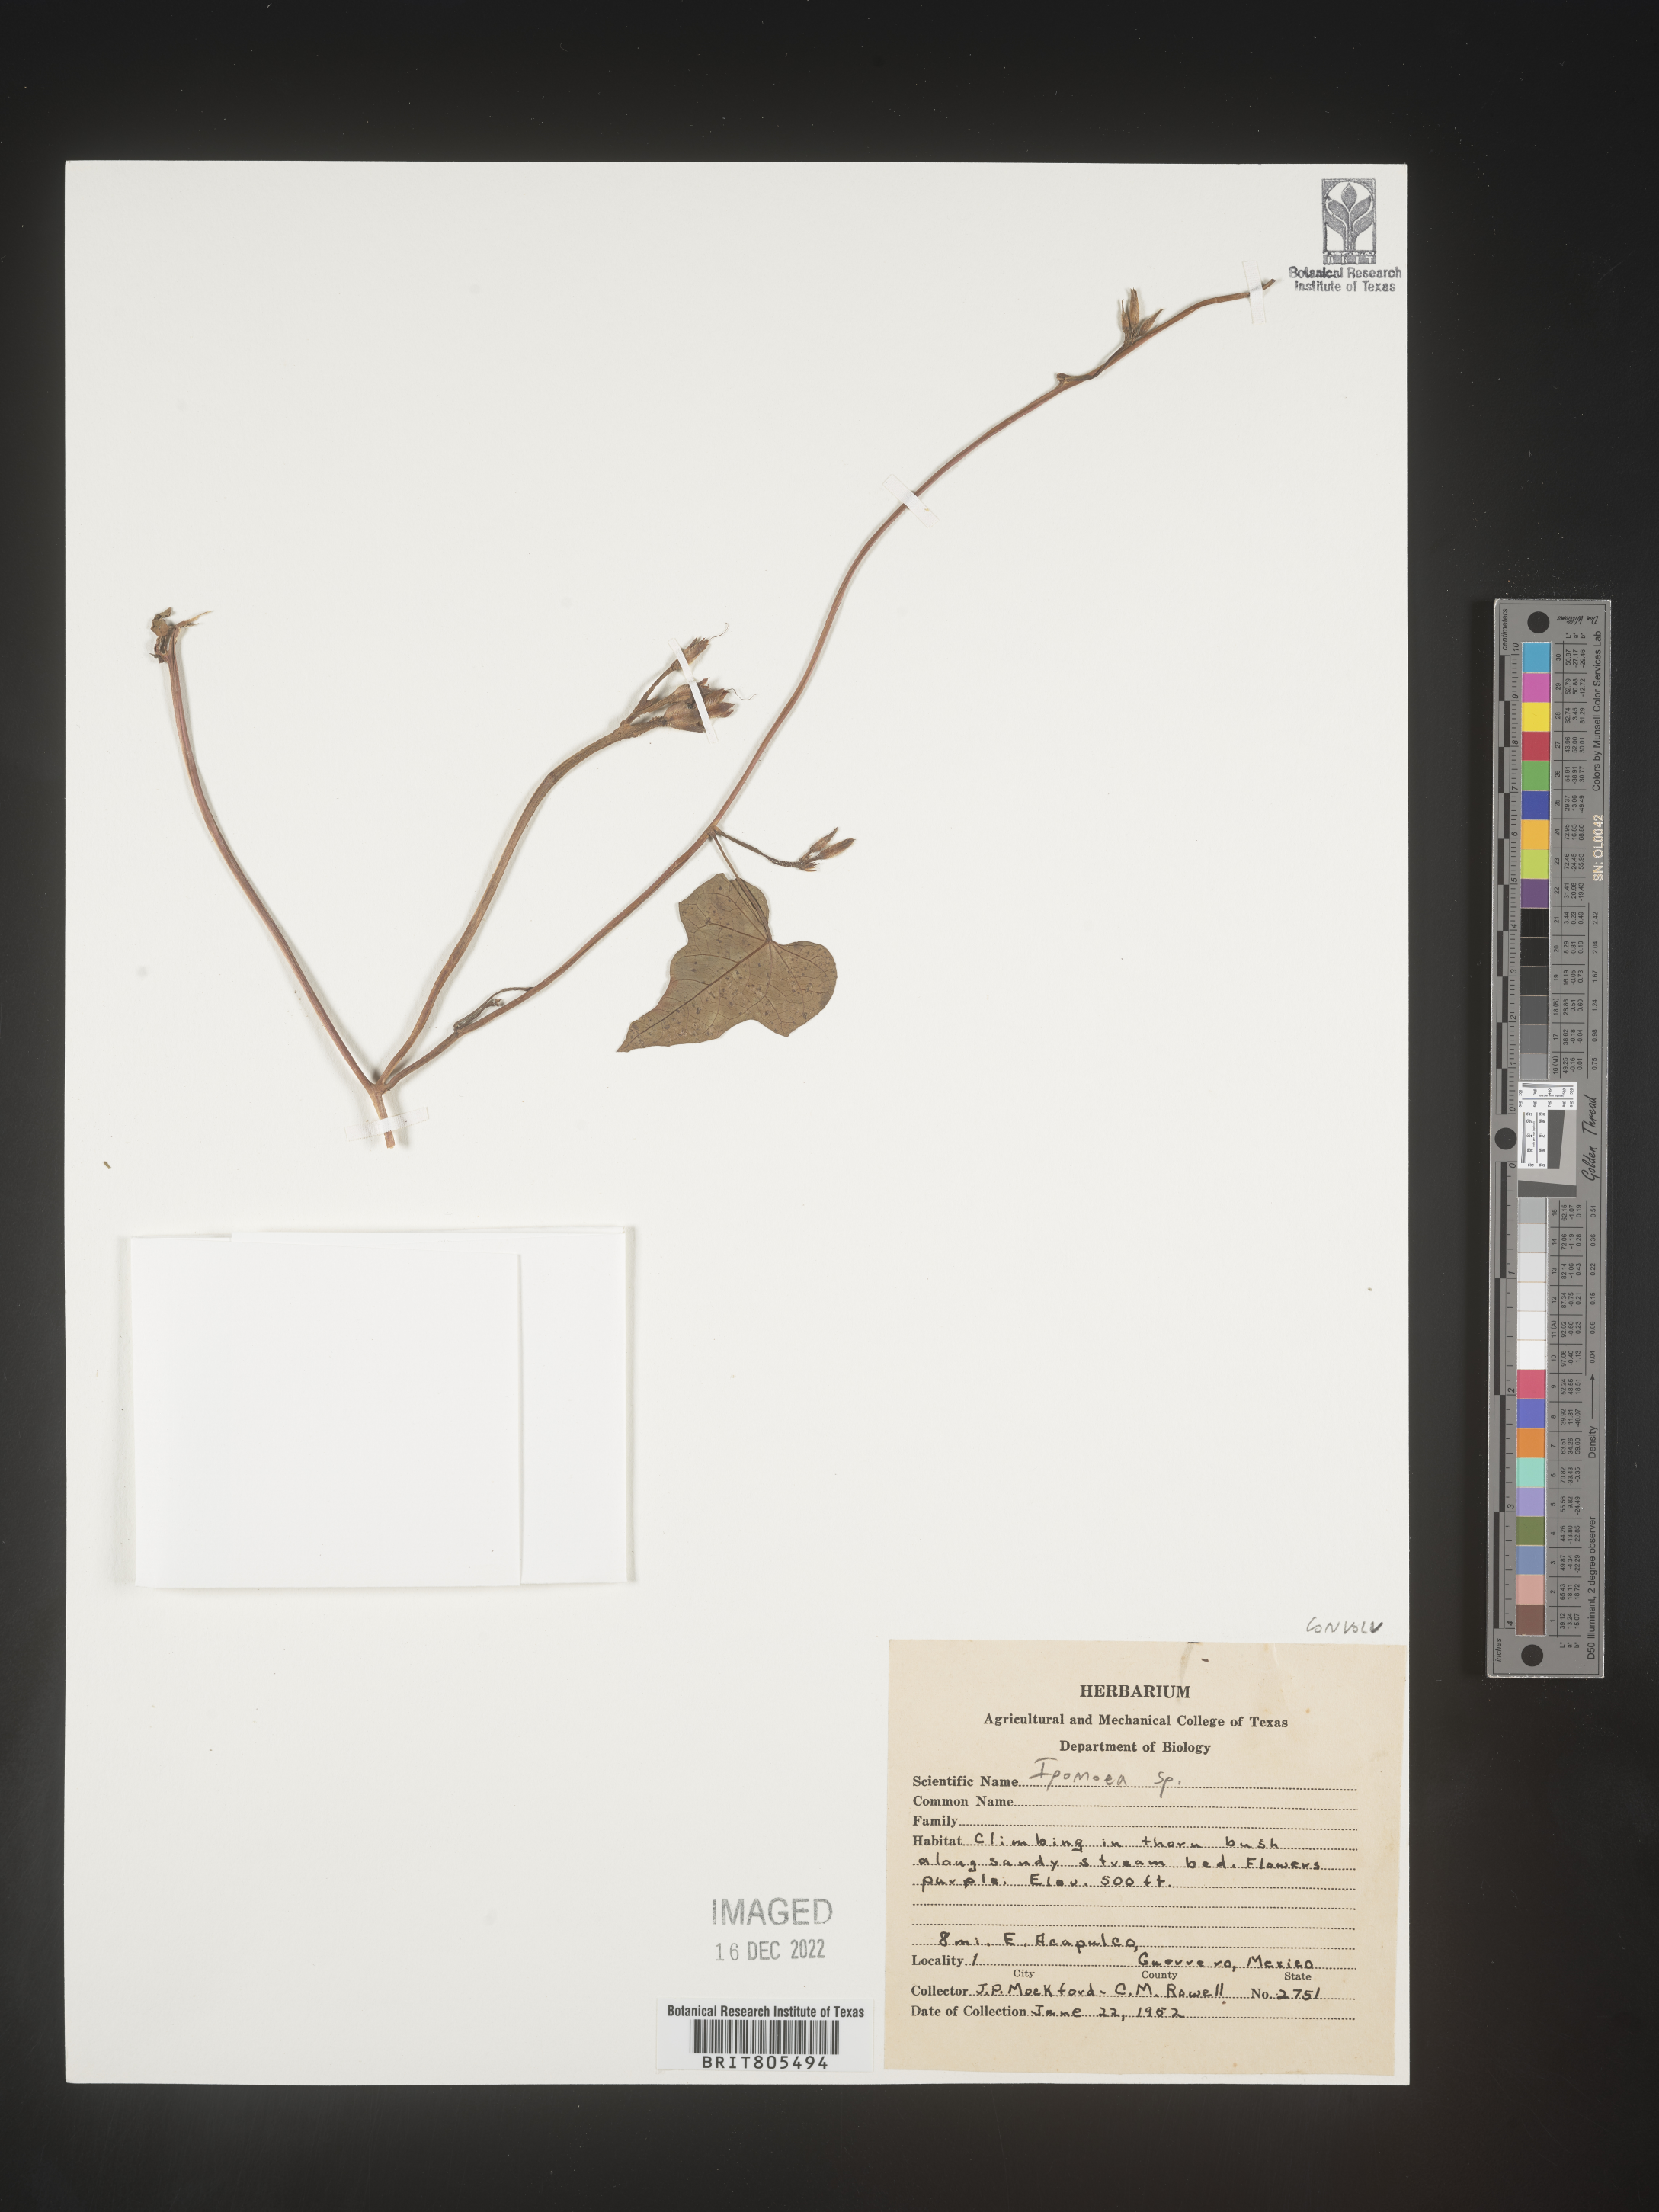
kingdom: Plantae
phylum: Tracheophyta
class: Magnoliopsida
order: Solanales
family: Convolvulaceae
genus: Ipomoea
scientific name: Ipomoea
